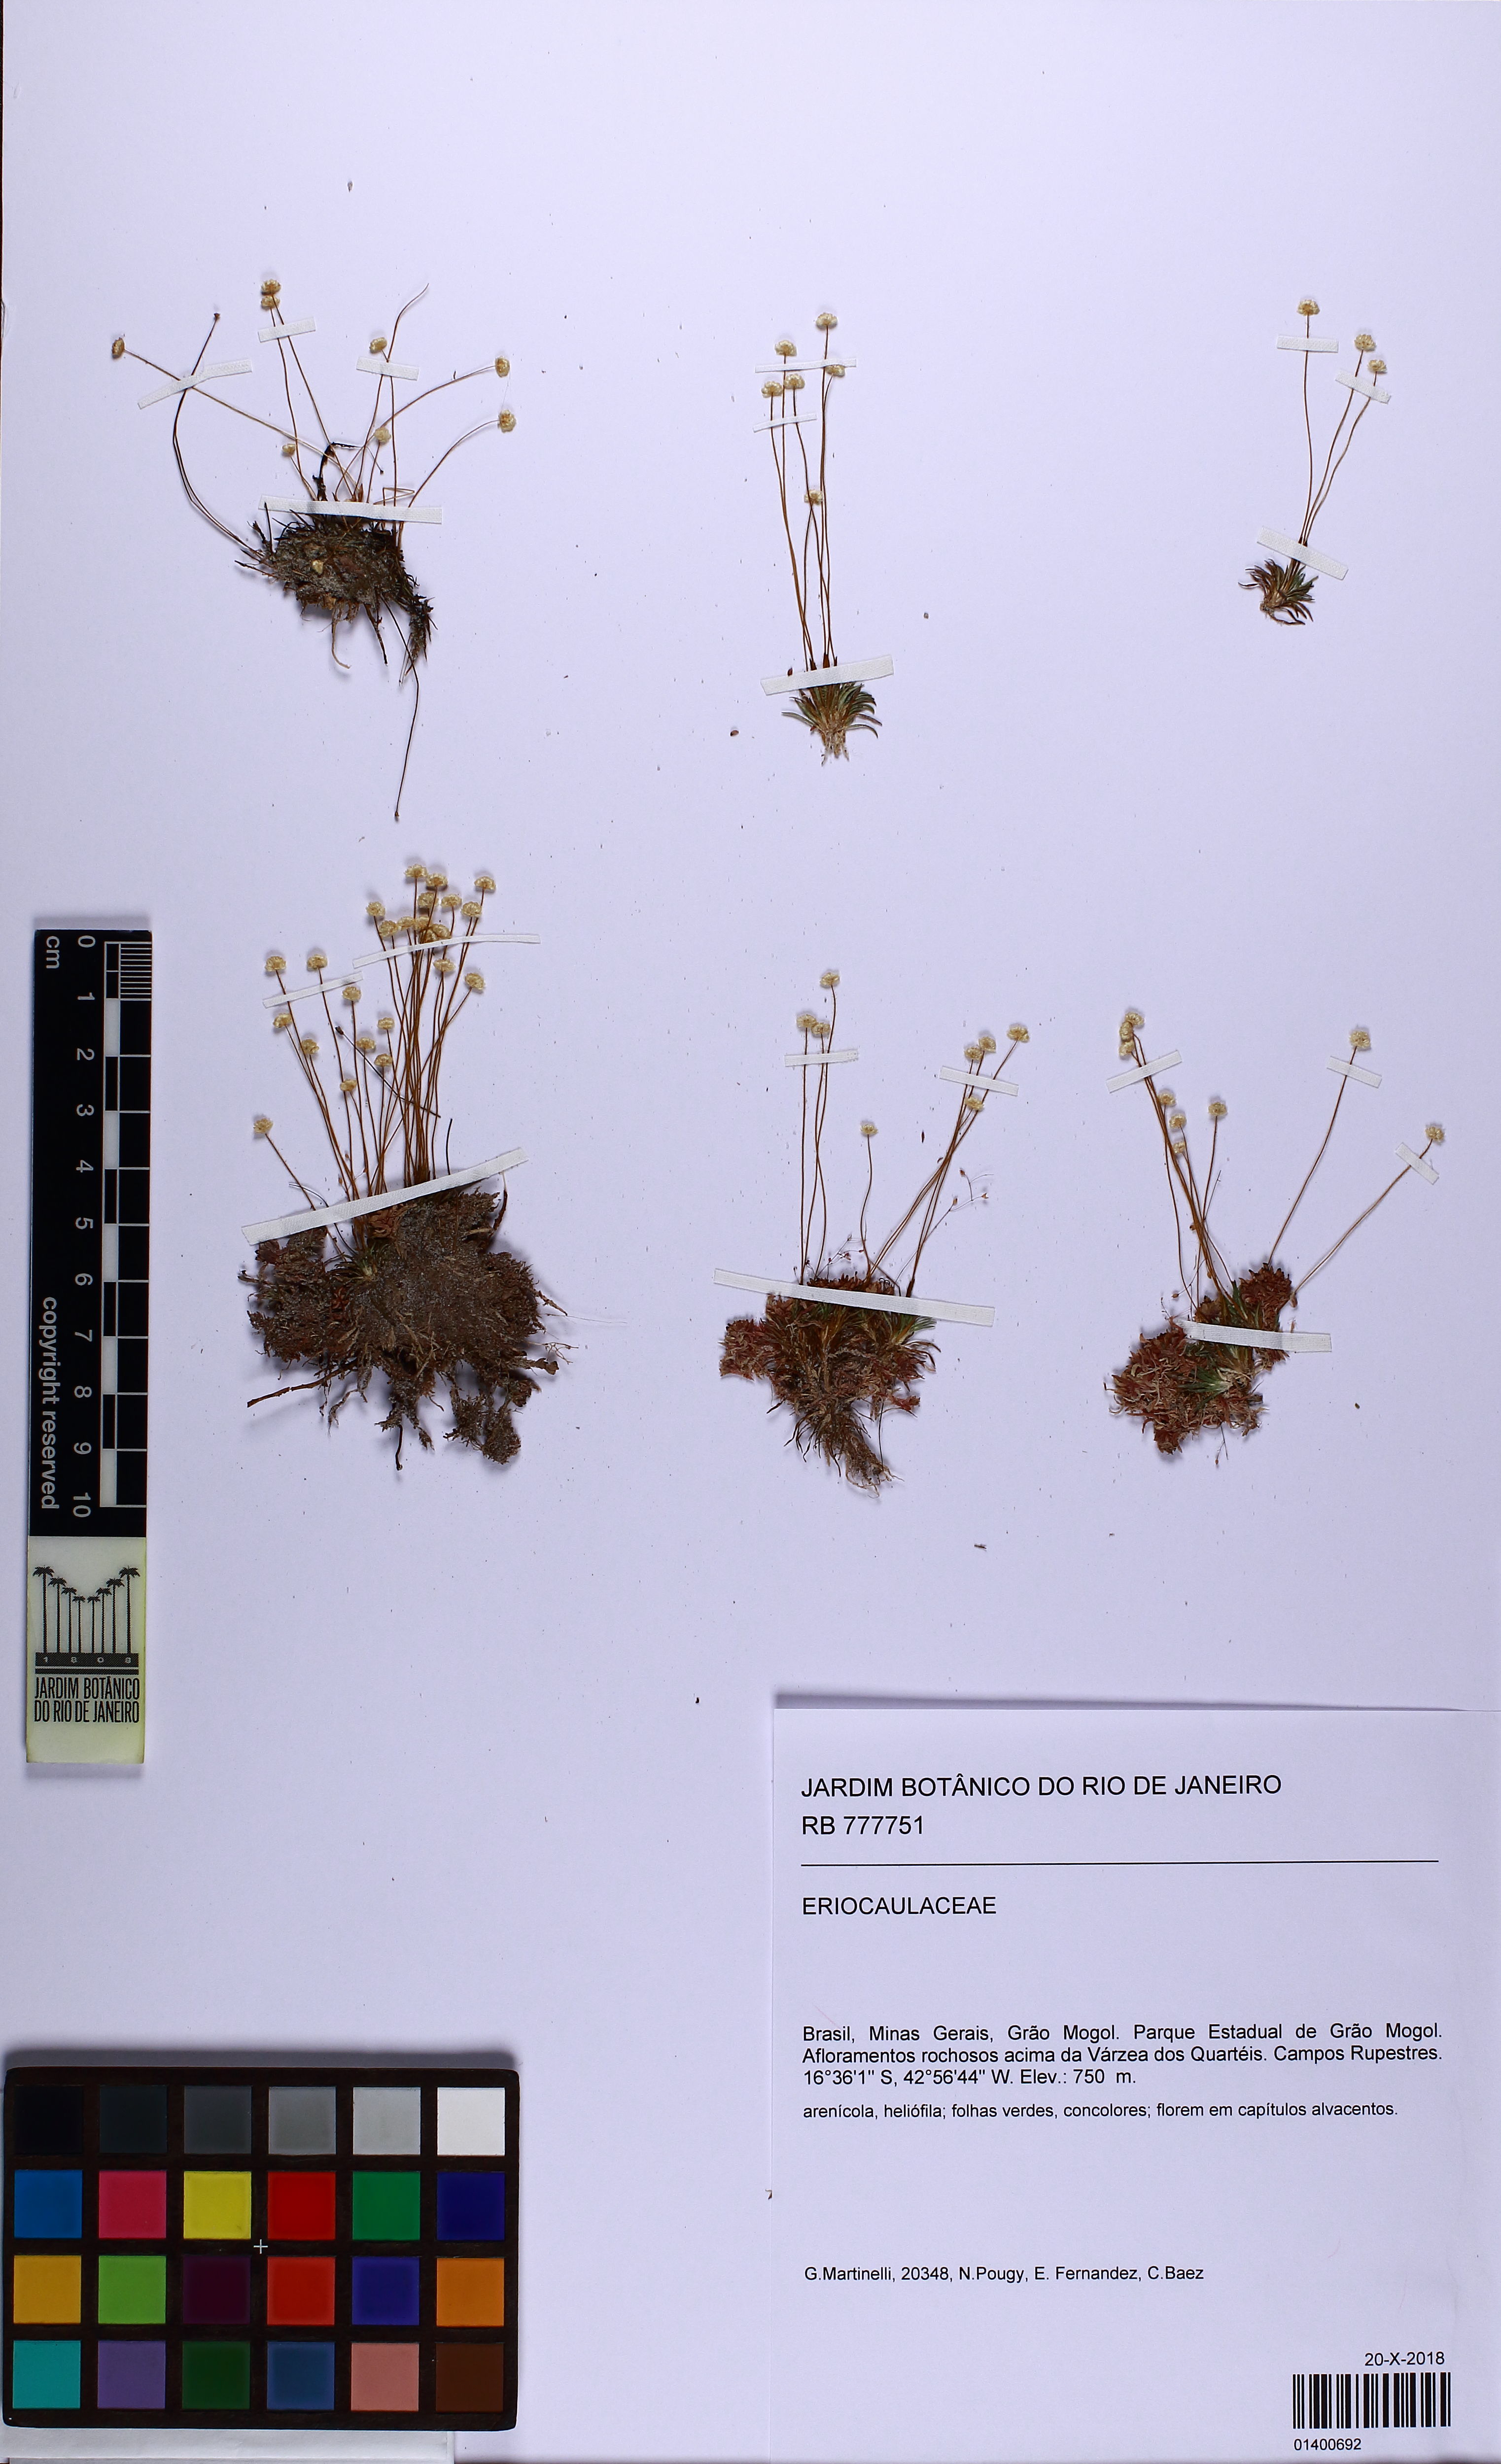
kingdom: Plantae
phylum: Tracheophyta
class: Liliopsida
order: Poales
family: Eriocaulaceae
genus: Syngonanthus
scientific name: Syngonanthus
